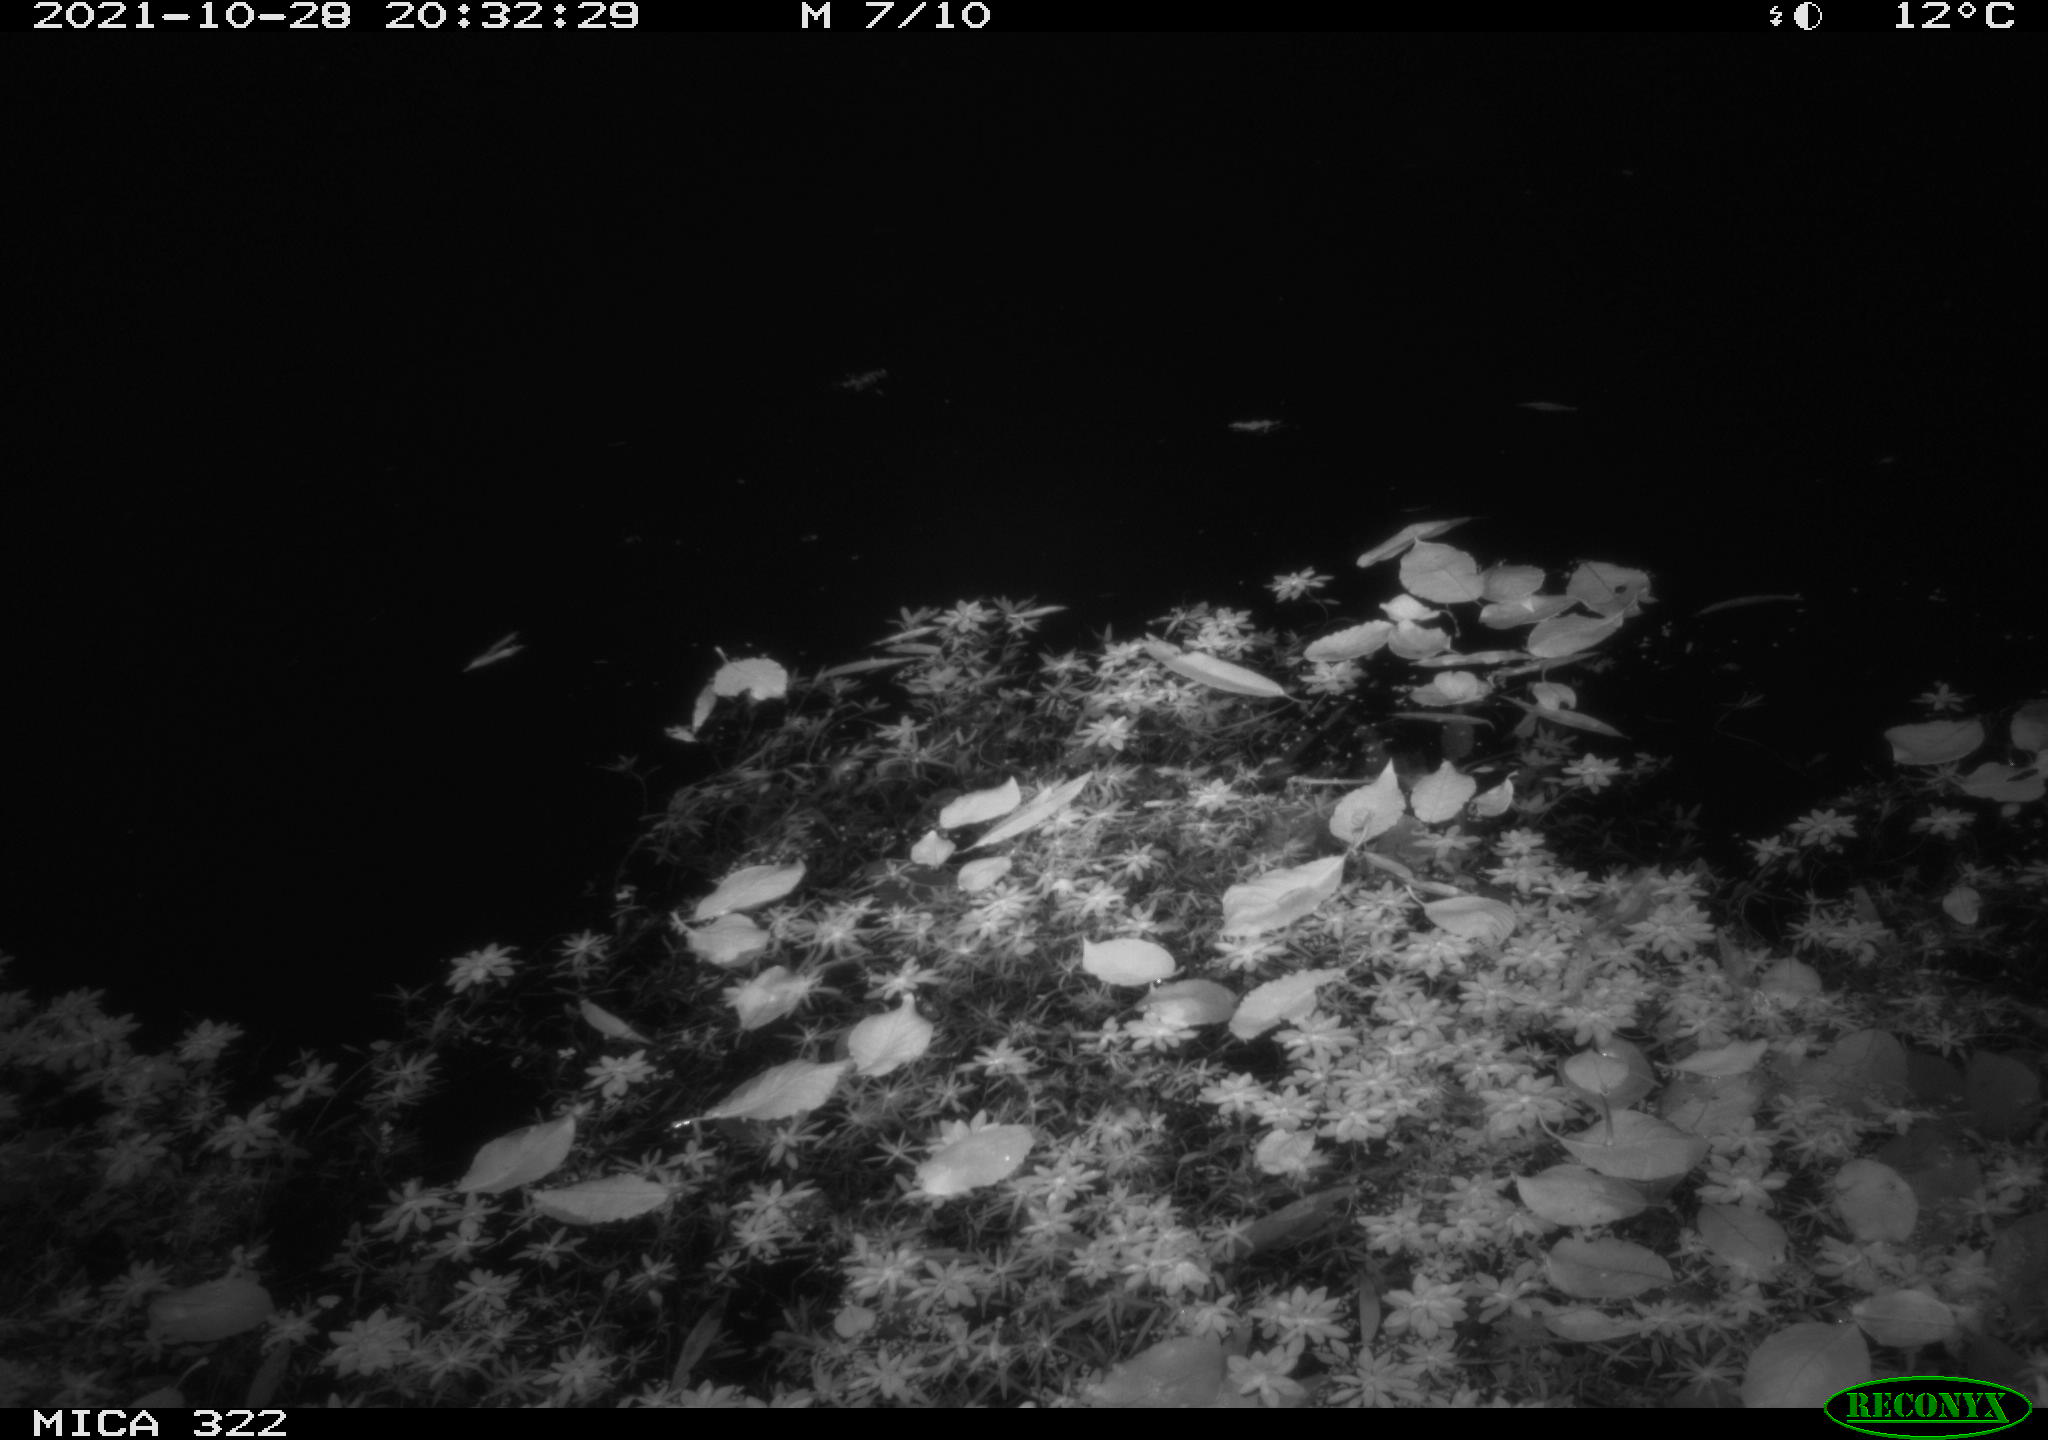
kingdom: Animalia
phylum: Chordata
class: Mammalia
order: Rodentia
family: Muridae
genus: Rattus
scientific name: Rattus norvegicus
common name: Brown rat
